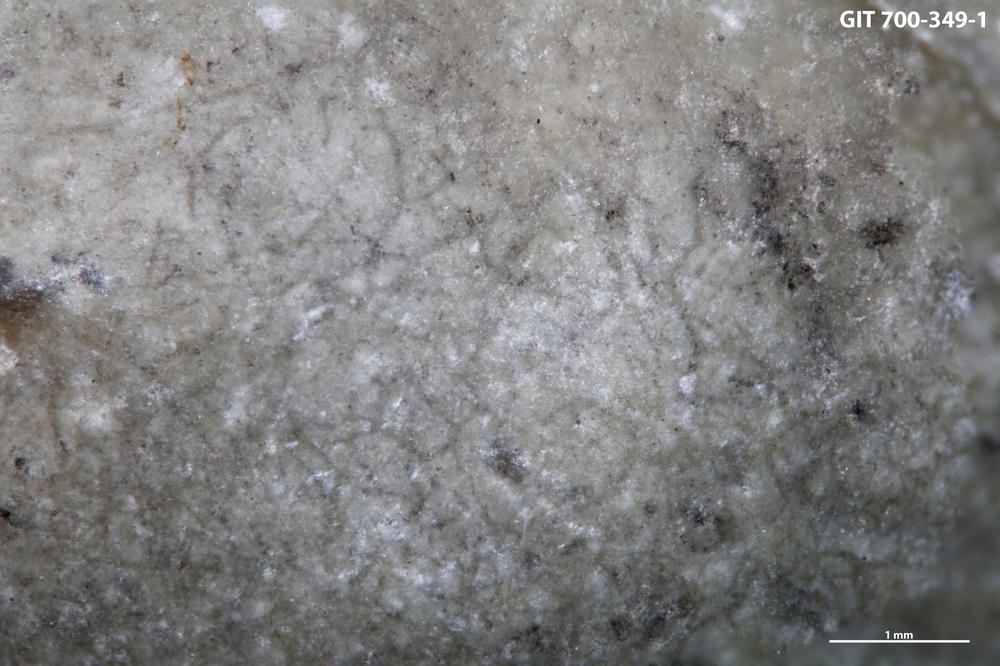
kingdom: Animalia
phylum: Annelida
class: Polychaeta
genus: Arachnostega
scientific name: Arachnostega
